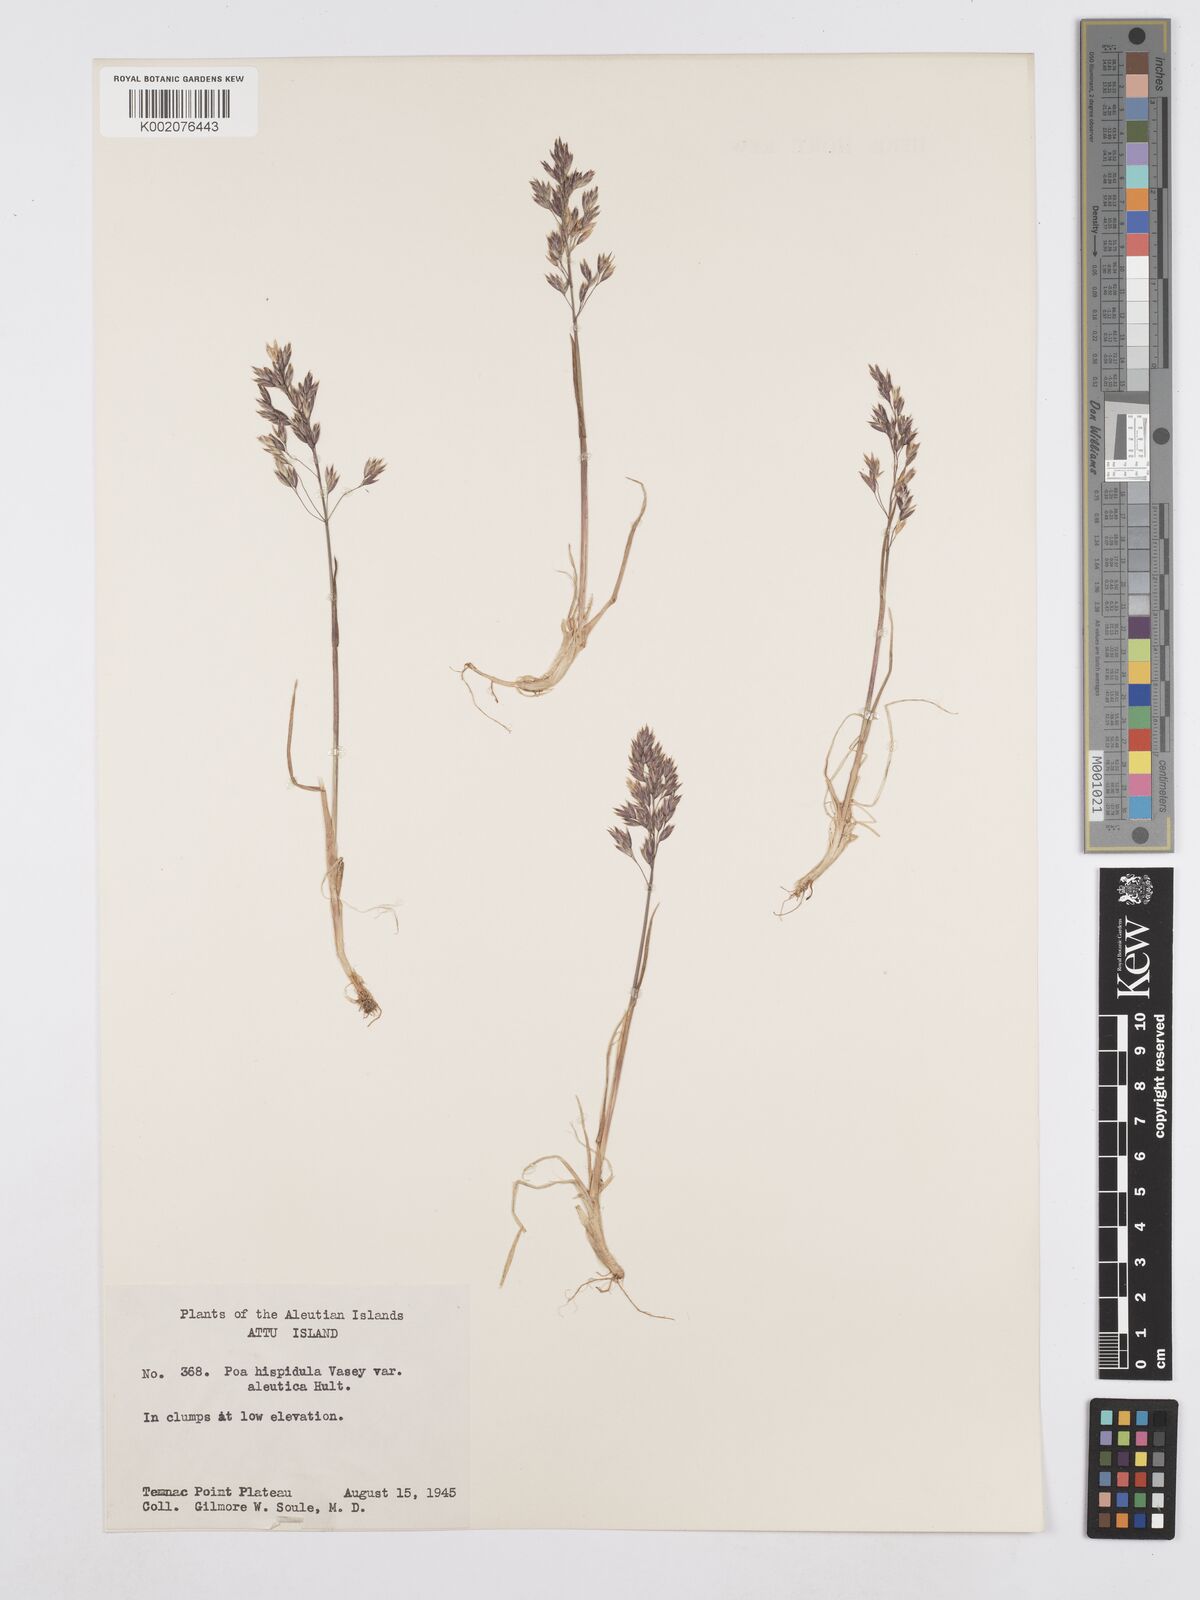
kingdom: Plantae
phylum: Tracheophyta
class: Liliopsida
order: Poales
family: Poaceae
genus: Poa
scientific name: Poa macrocalyx
